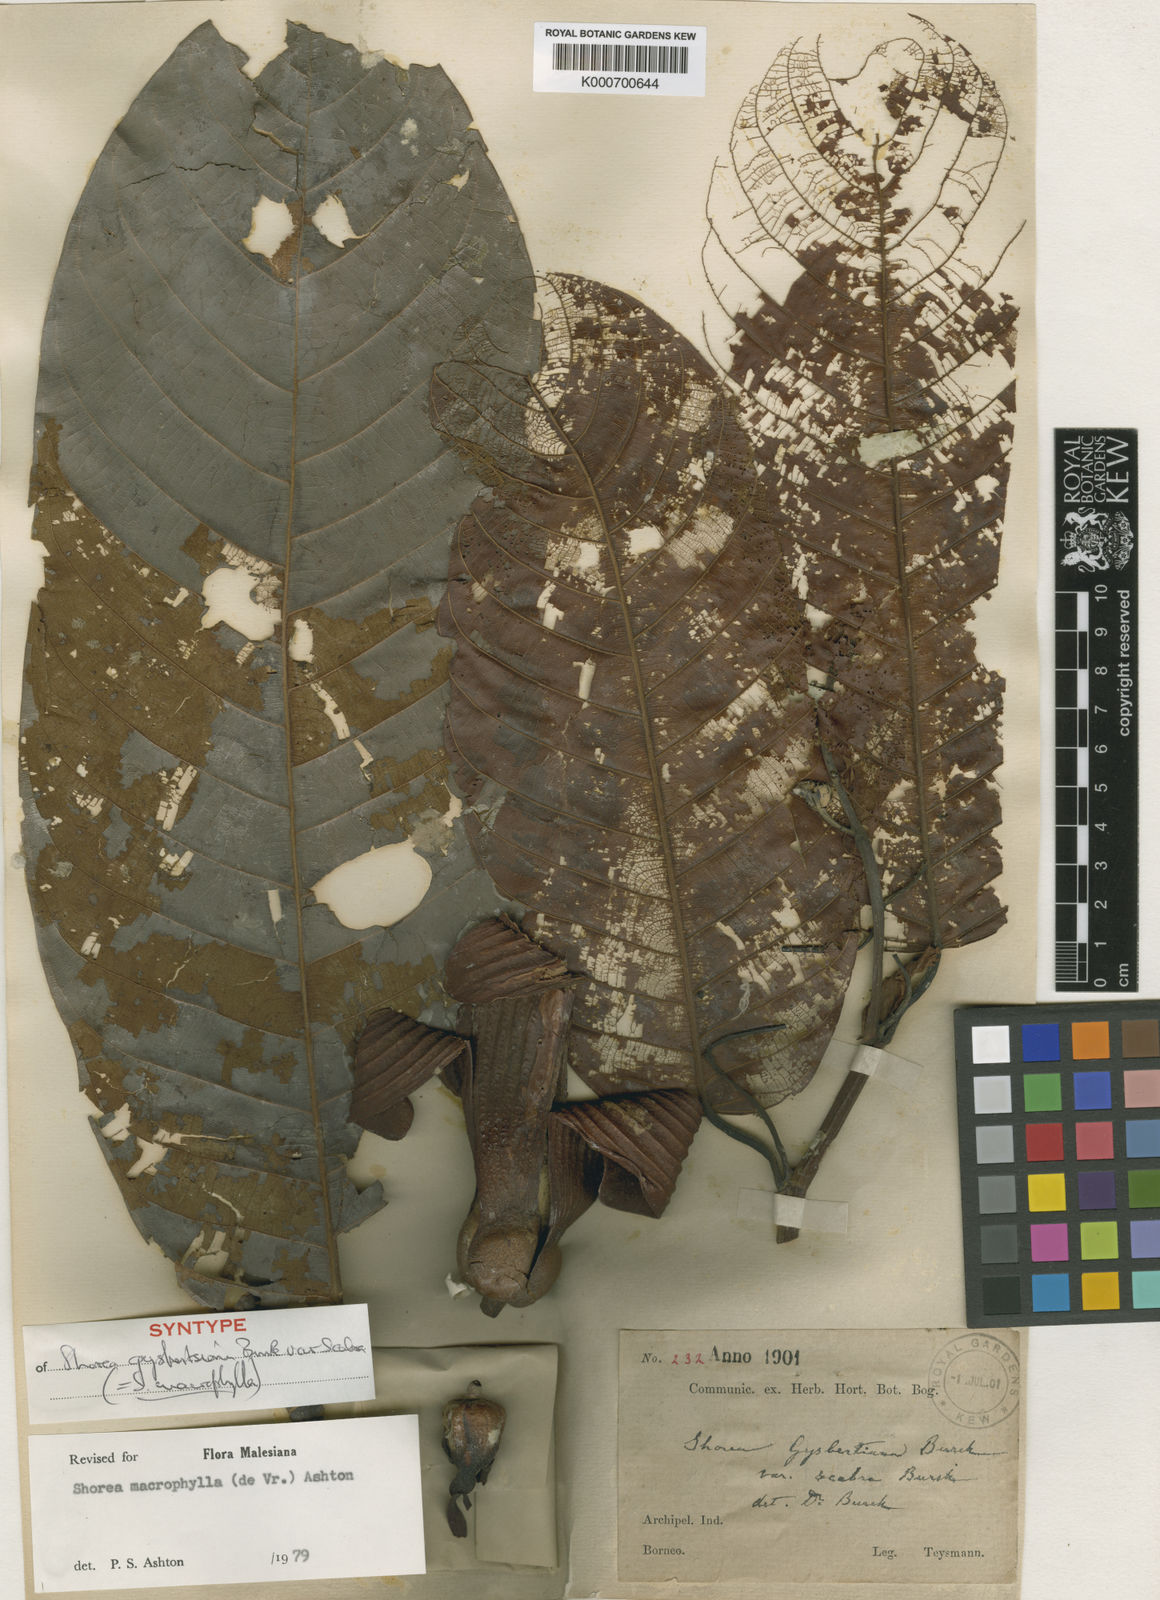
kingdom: Plantae
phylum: Tracheophyta
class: Magnoliopsida
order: Malvales
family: Dipterocarpaceae
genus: Shorea
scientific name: Shorea macrophylla
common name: Light red meranti
